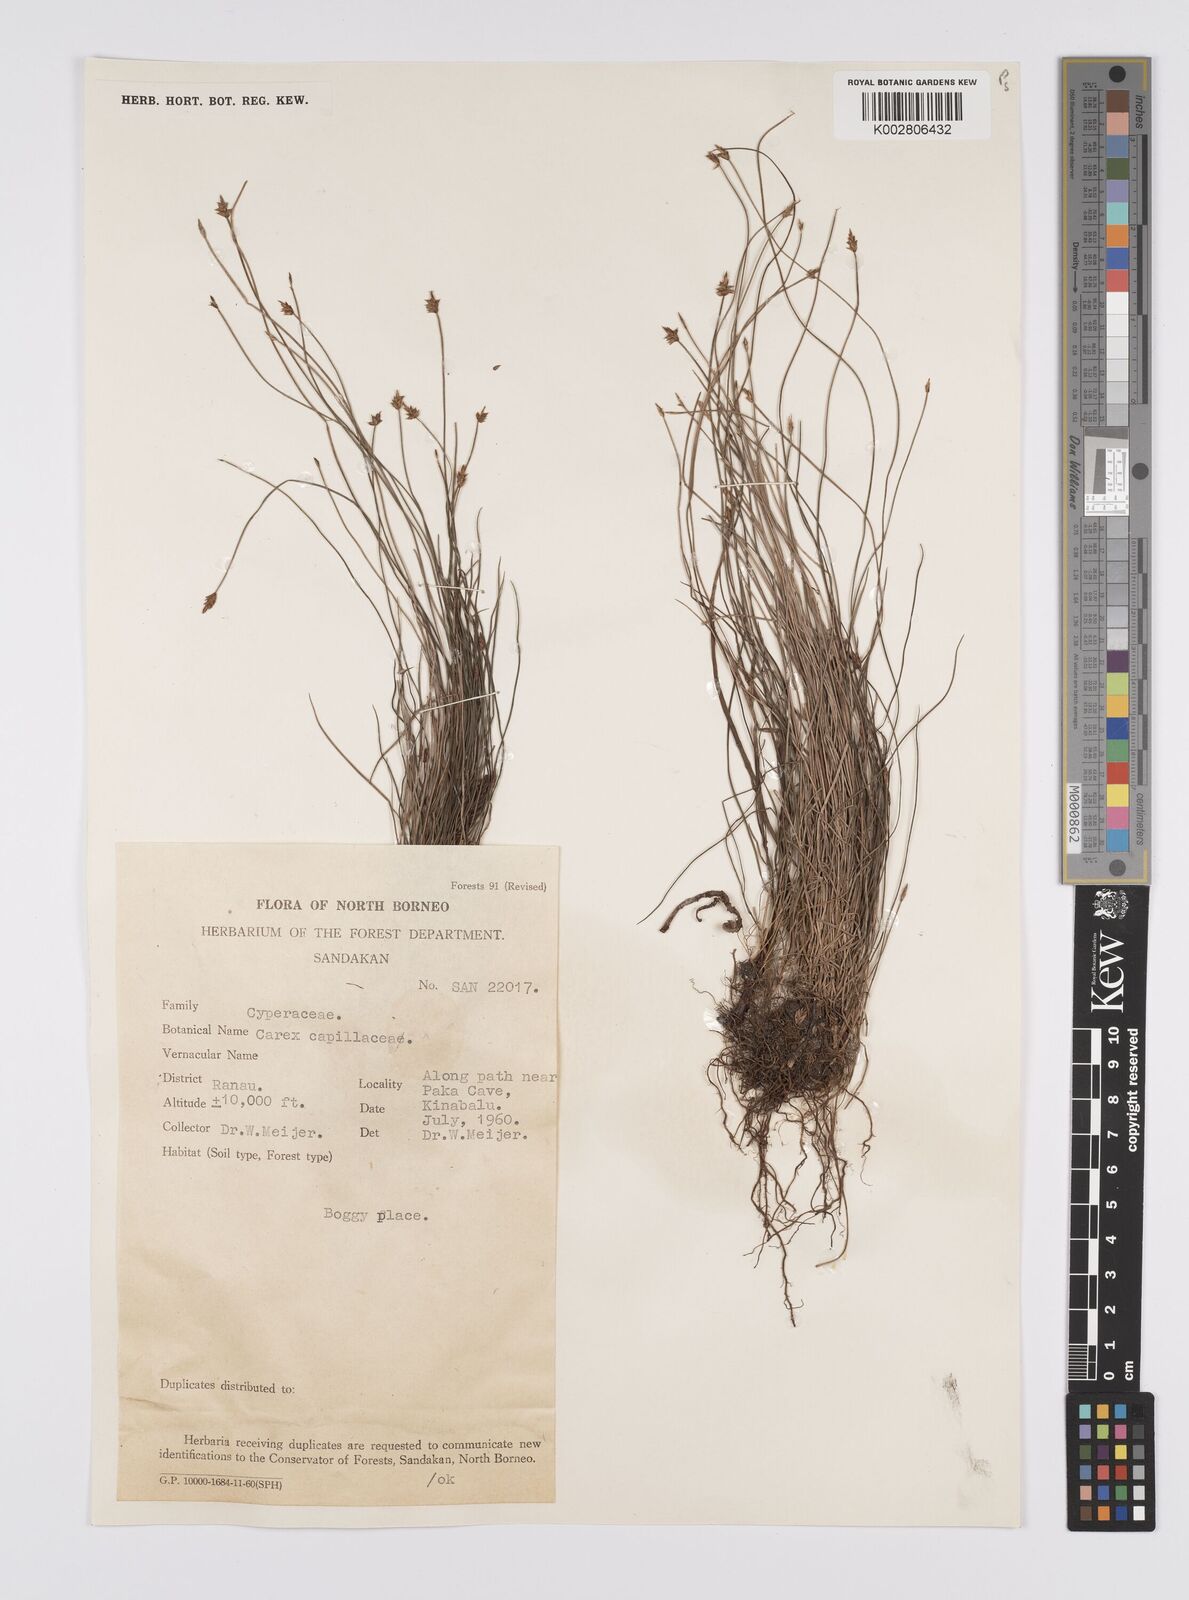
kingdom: Plantae
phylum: Tracheophyta
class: Liliopsida
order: Poales
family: Cyperaceae
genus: Carex
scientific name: Carex capillacea
